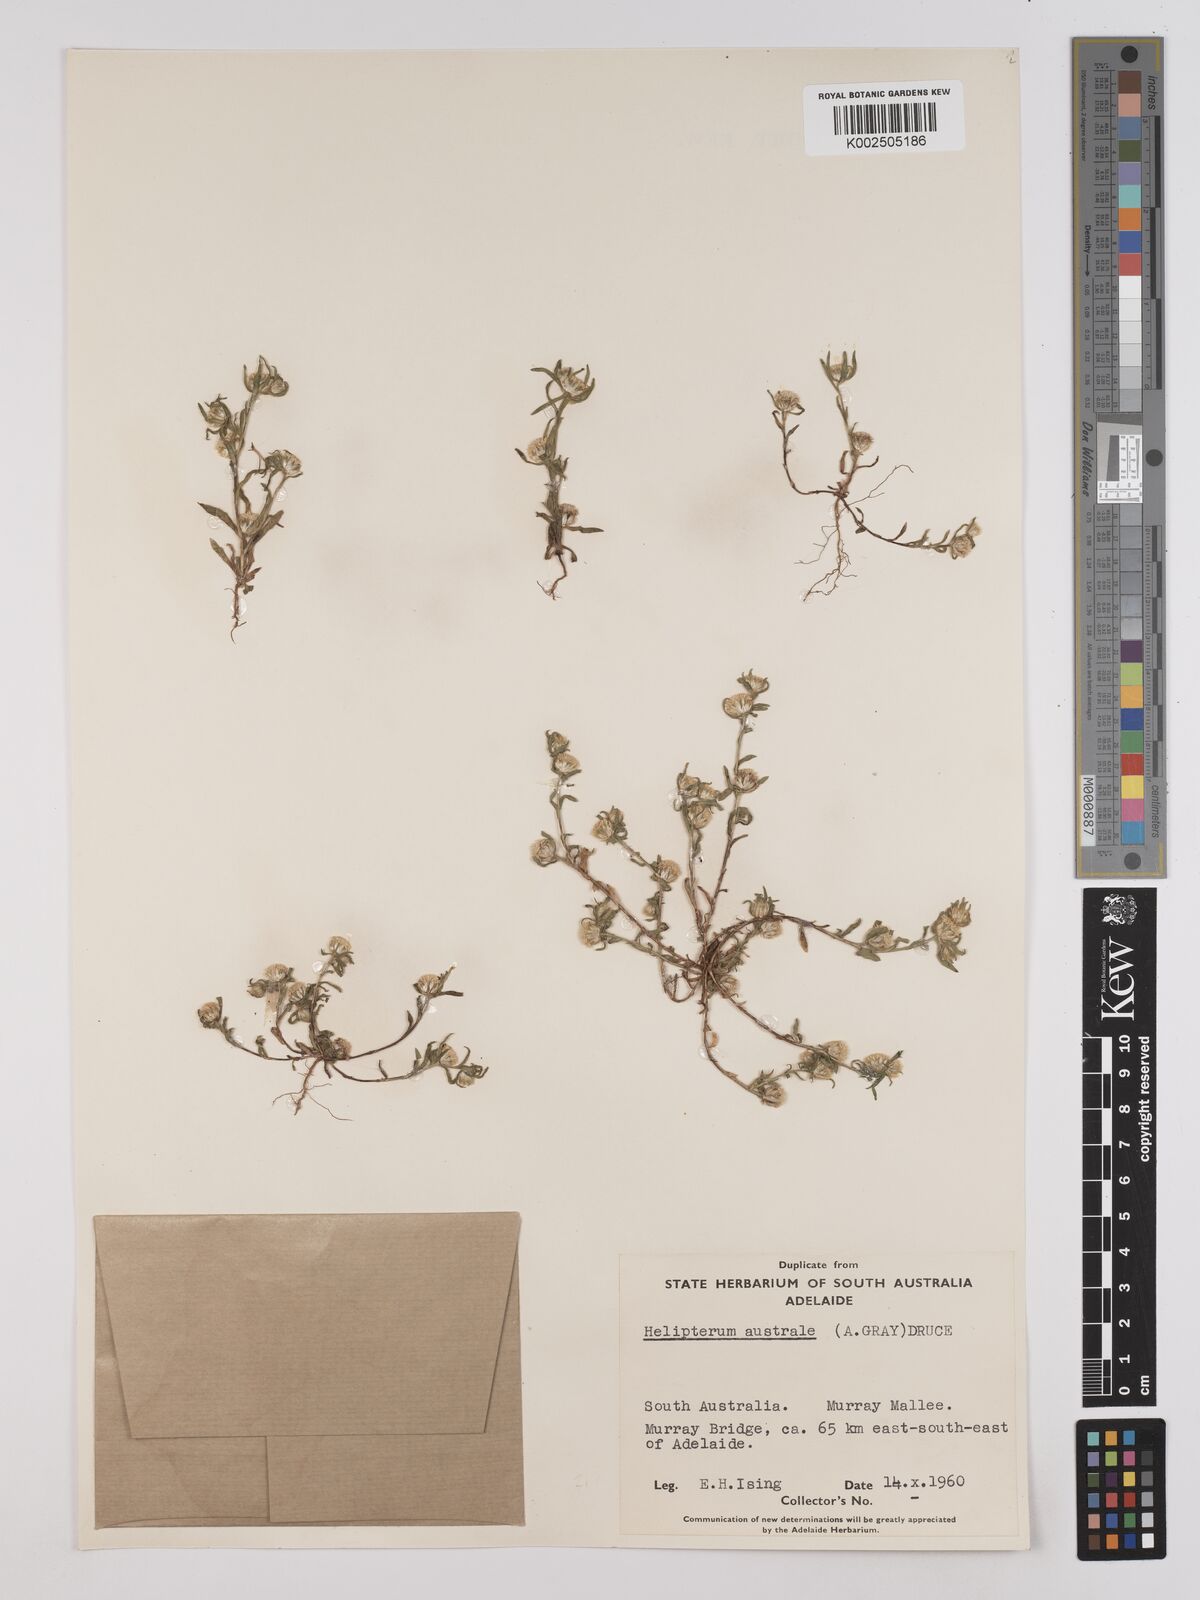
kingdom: Plantae
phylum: Tracheophyta
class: Magnoliopsida
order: Asterales
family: Asteraceae
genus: Triptilodiscus
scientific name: Triptilodiscus pygmaeus
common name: Common sunray
